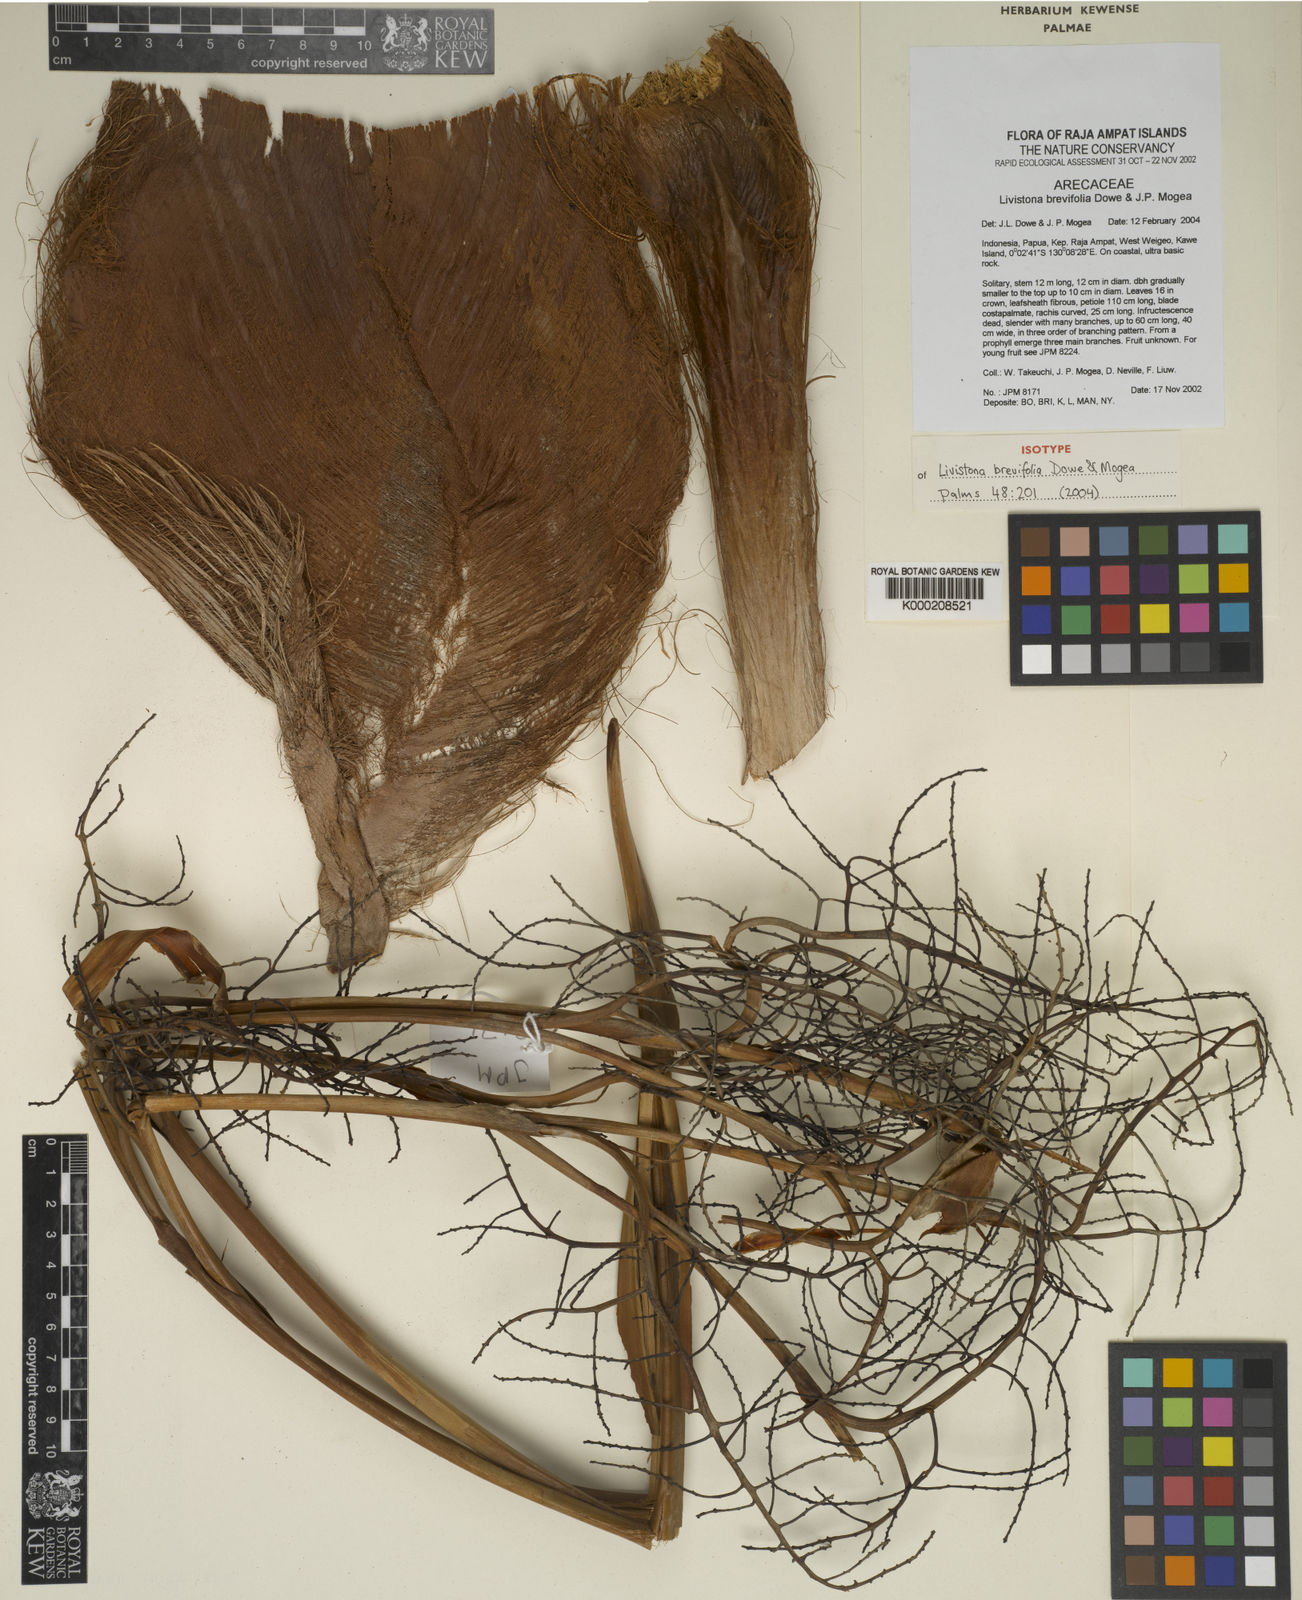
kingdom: Plantae
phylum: Tracheophyta
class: Liliopsida
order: Arecales
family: Arecaceae
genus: Saribus
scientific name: Saribus brevifolius
